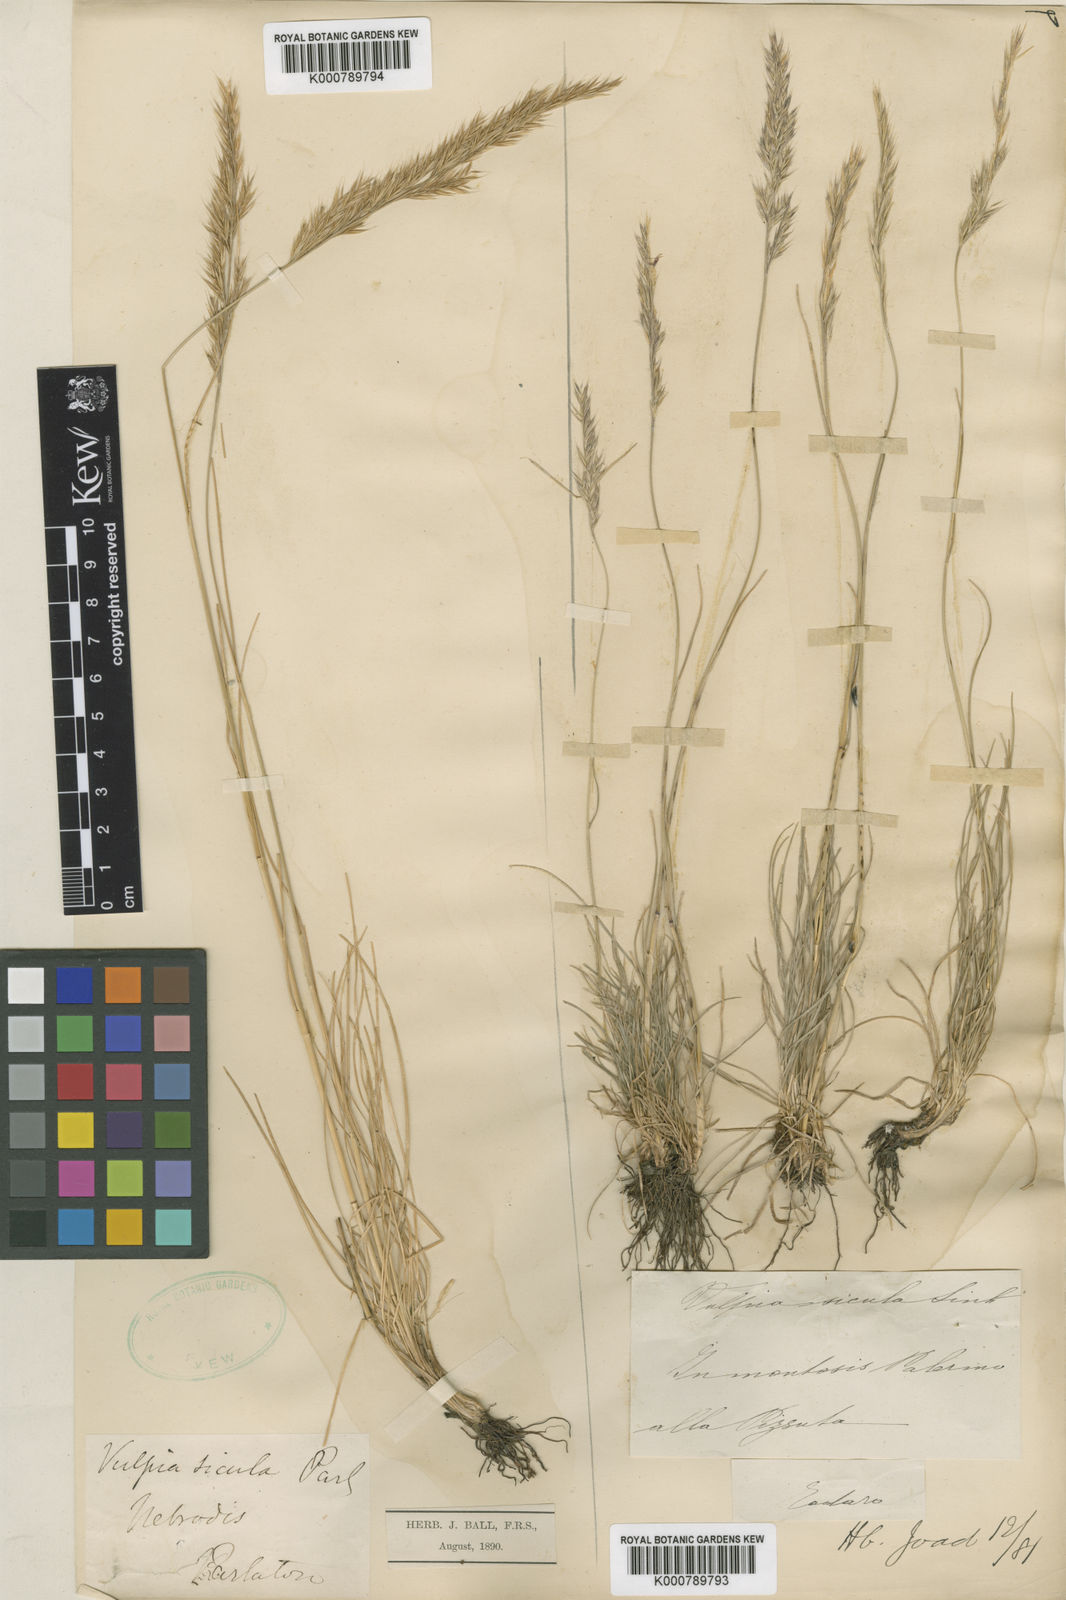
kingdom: Plantae
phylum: Tracheophyta
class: Liliopsida
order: Poales
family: Poaceae
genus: Festuca
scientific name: Festuca
